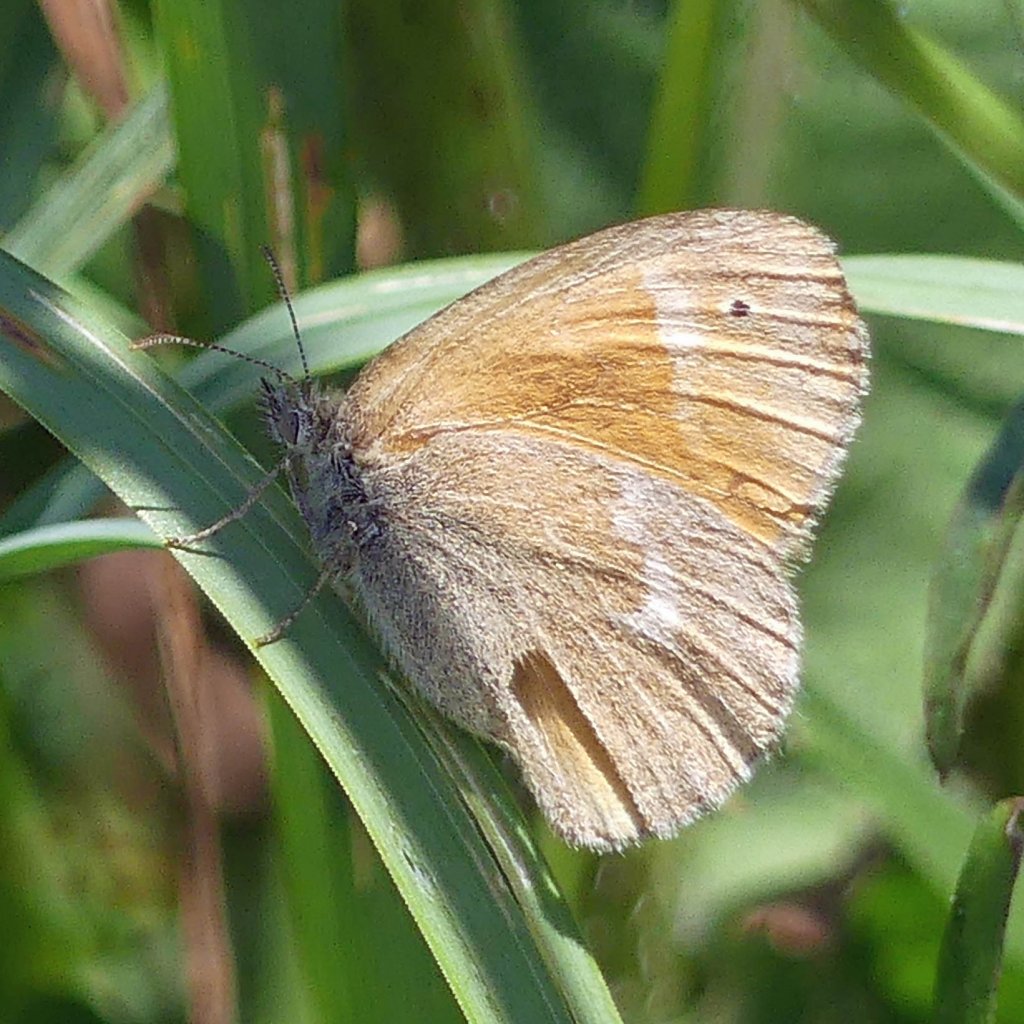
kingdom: Animalia
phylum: Arthropoda
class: Insecta
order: Lepidoptera
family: Nymphalidae
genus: Coenonympha
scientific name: Coenonympha tullia
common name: Large Heath
